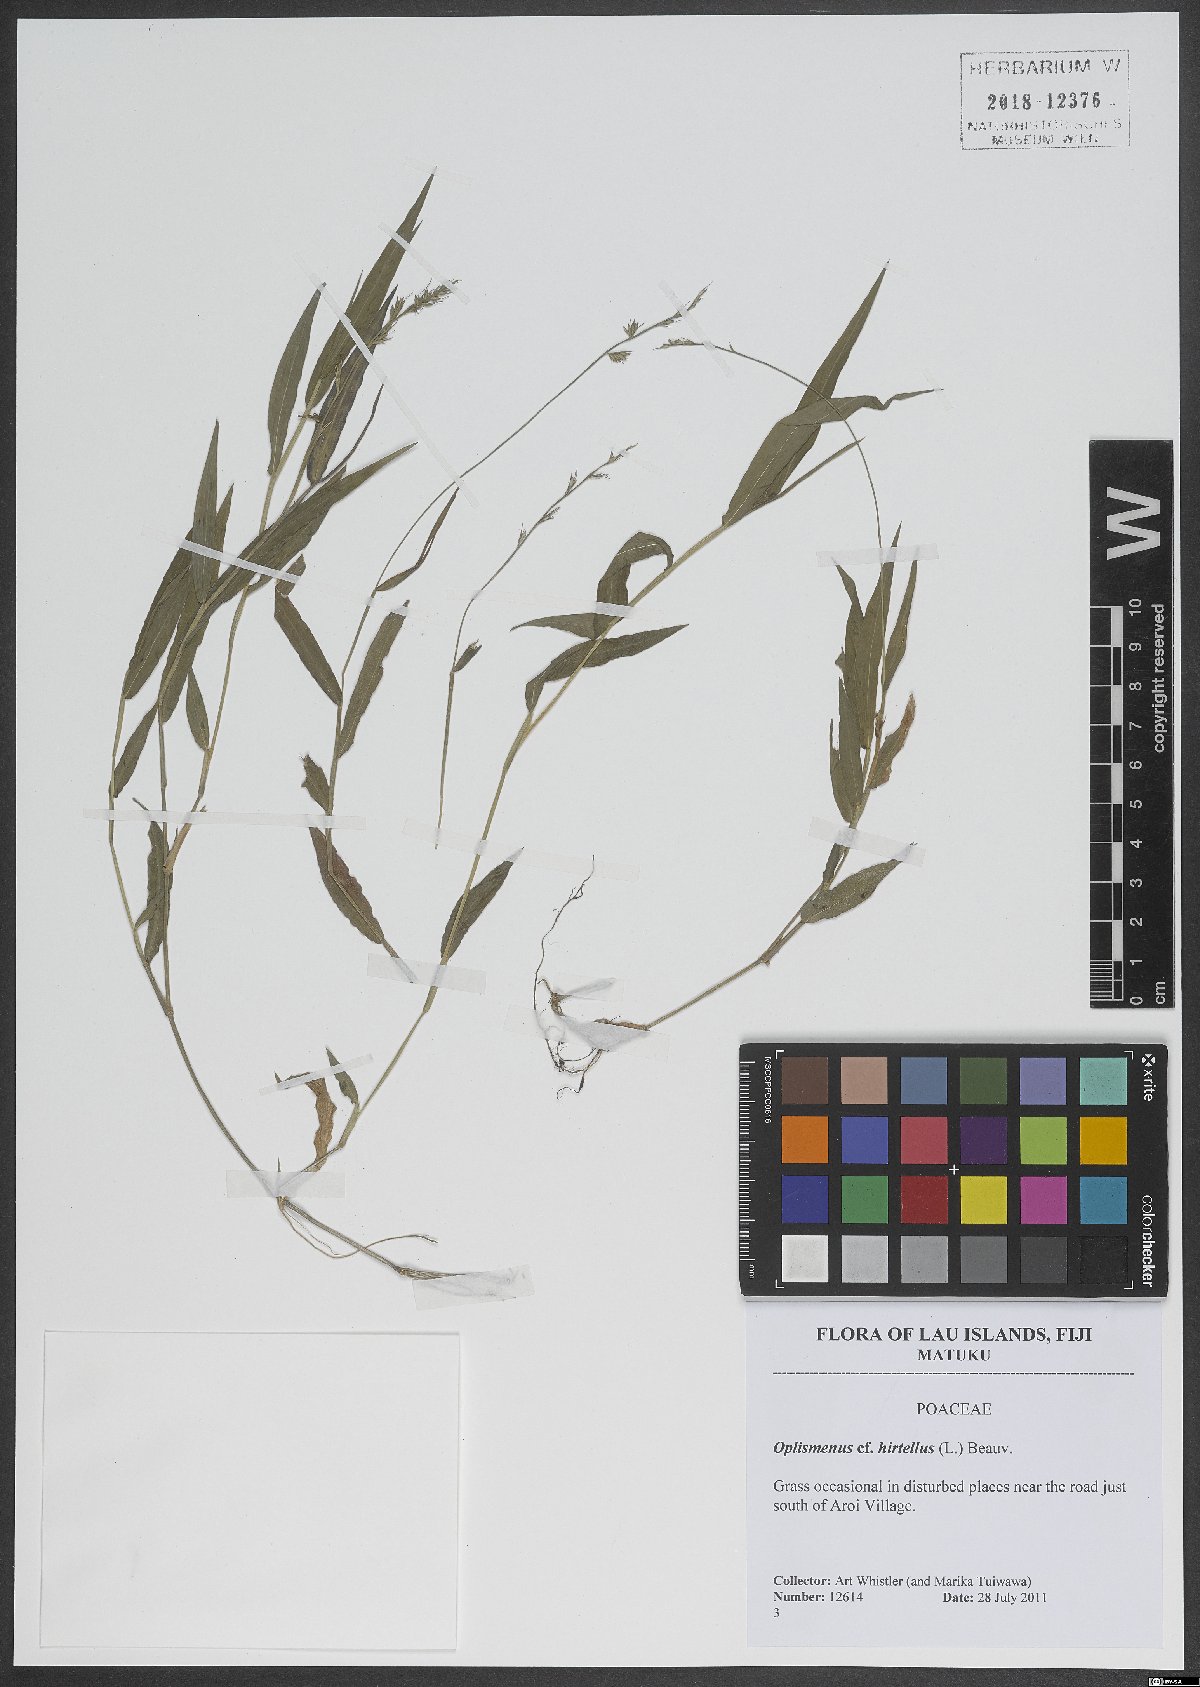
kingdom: Plantae
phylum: Tracheophyta
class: Liliopsida
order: Poales
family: Poaceae
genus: Oplismenus
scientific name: Oplismenus hirtellus
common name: Basketgrass
